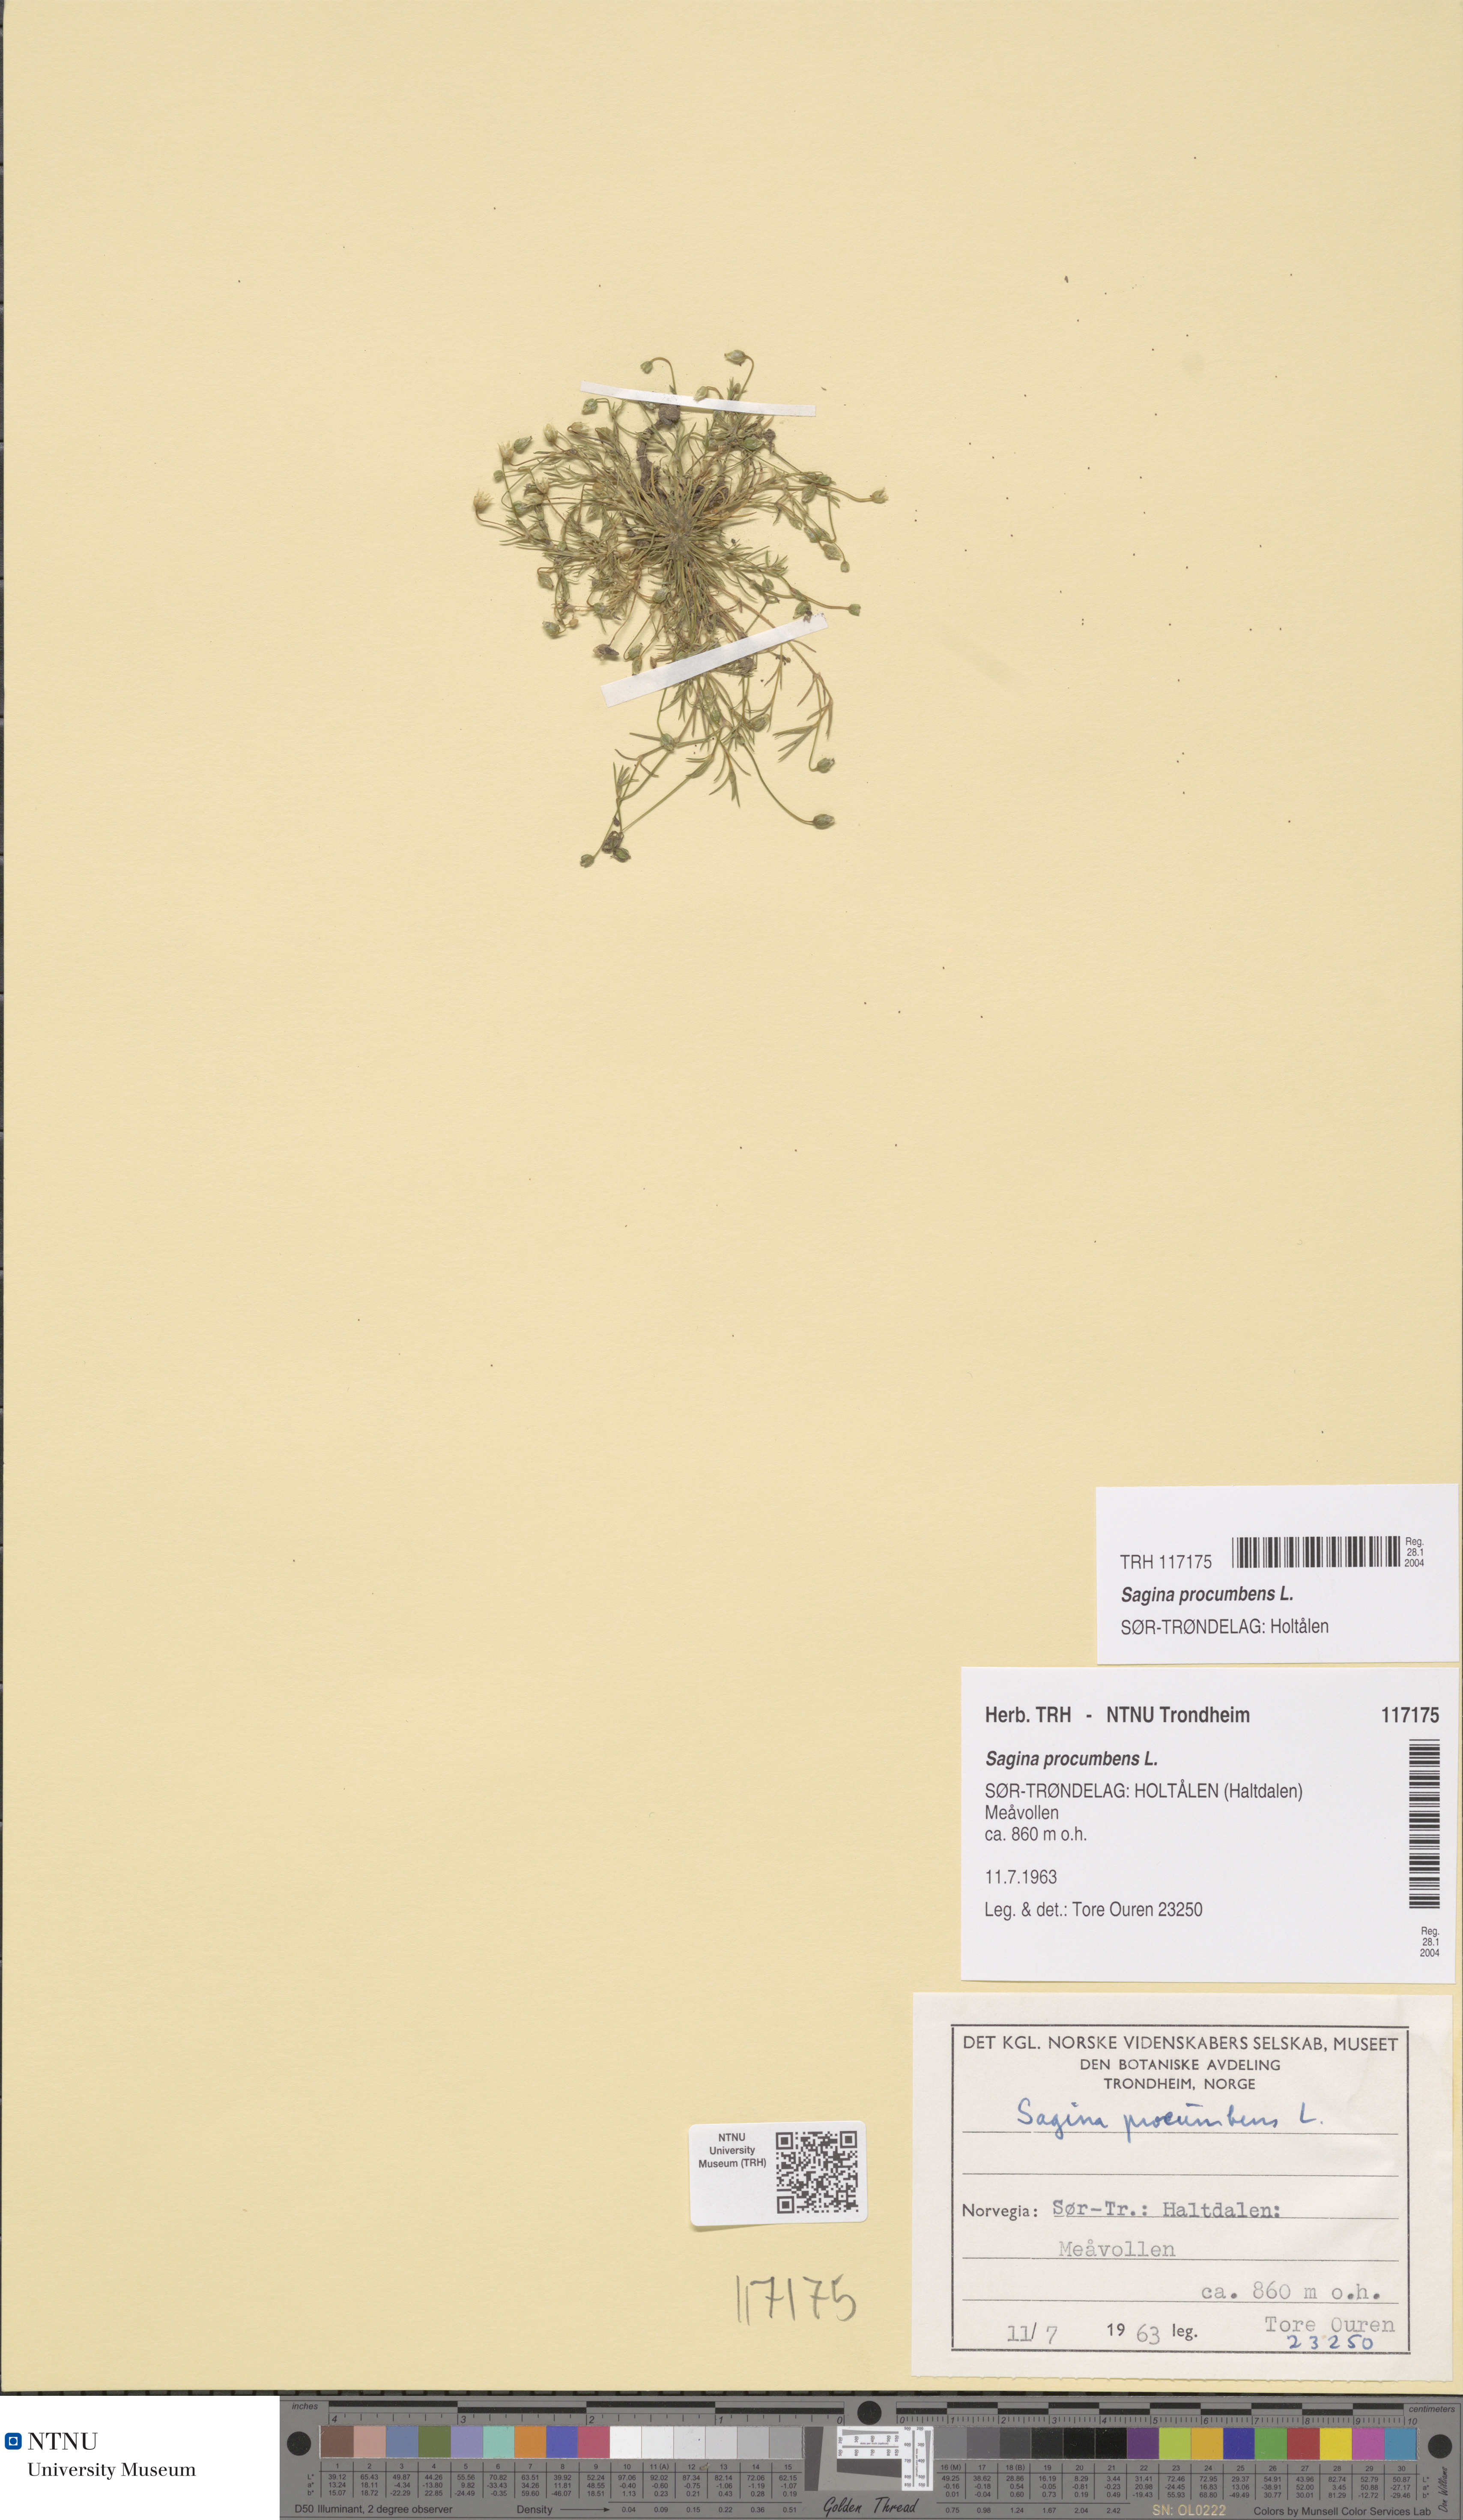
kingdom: Plantae
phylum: Tracheophyta
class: Magnoliopsida
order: Caryophyllales
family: Caryophyllaceae
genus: Sagina
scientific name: Sagina procumbens
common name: Procumbent pearlwort
